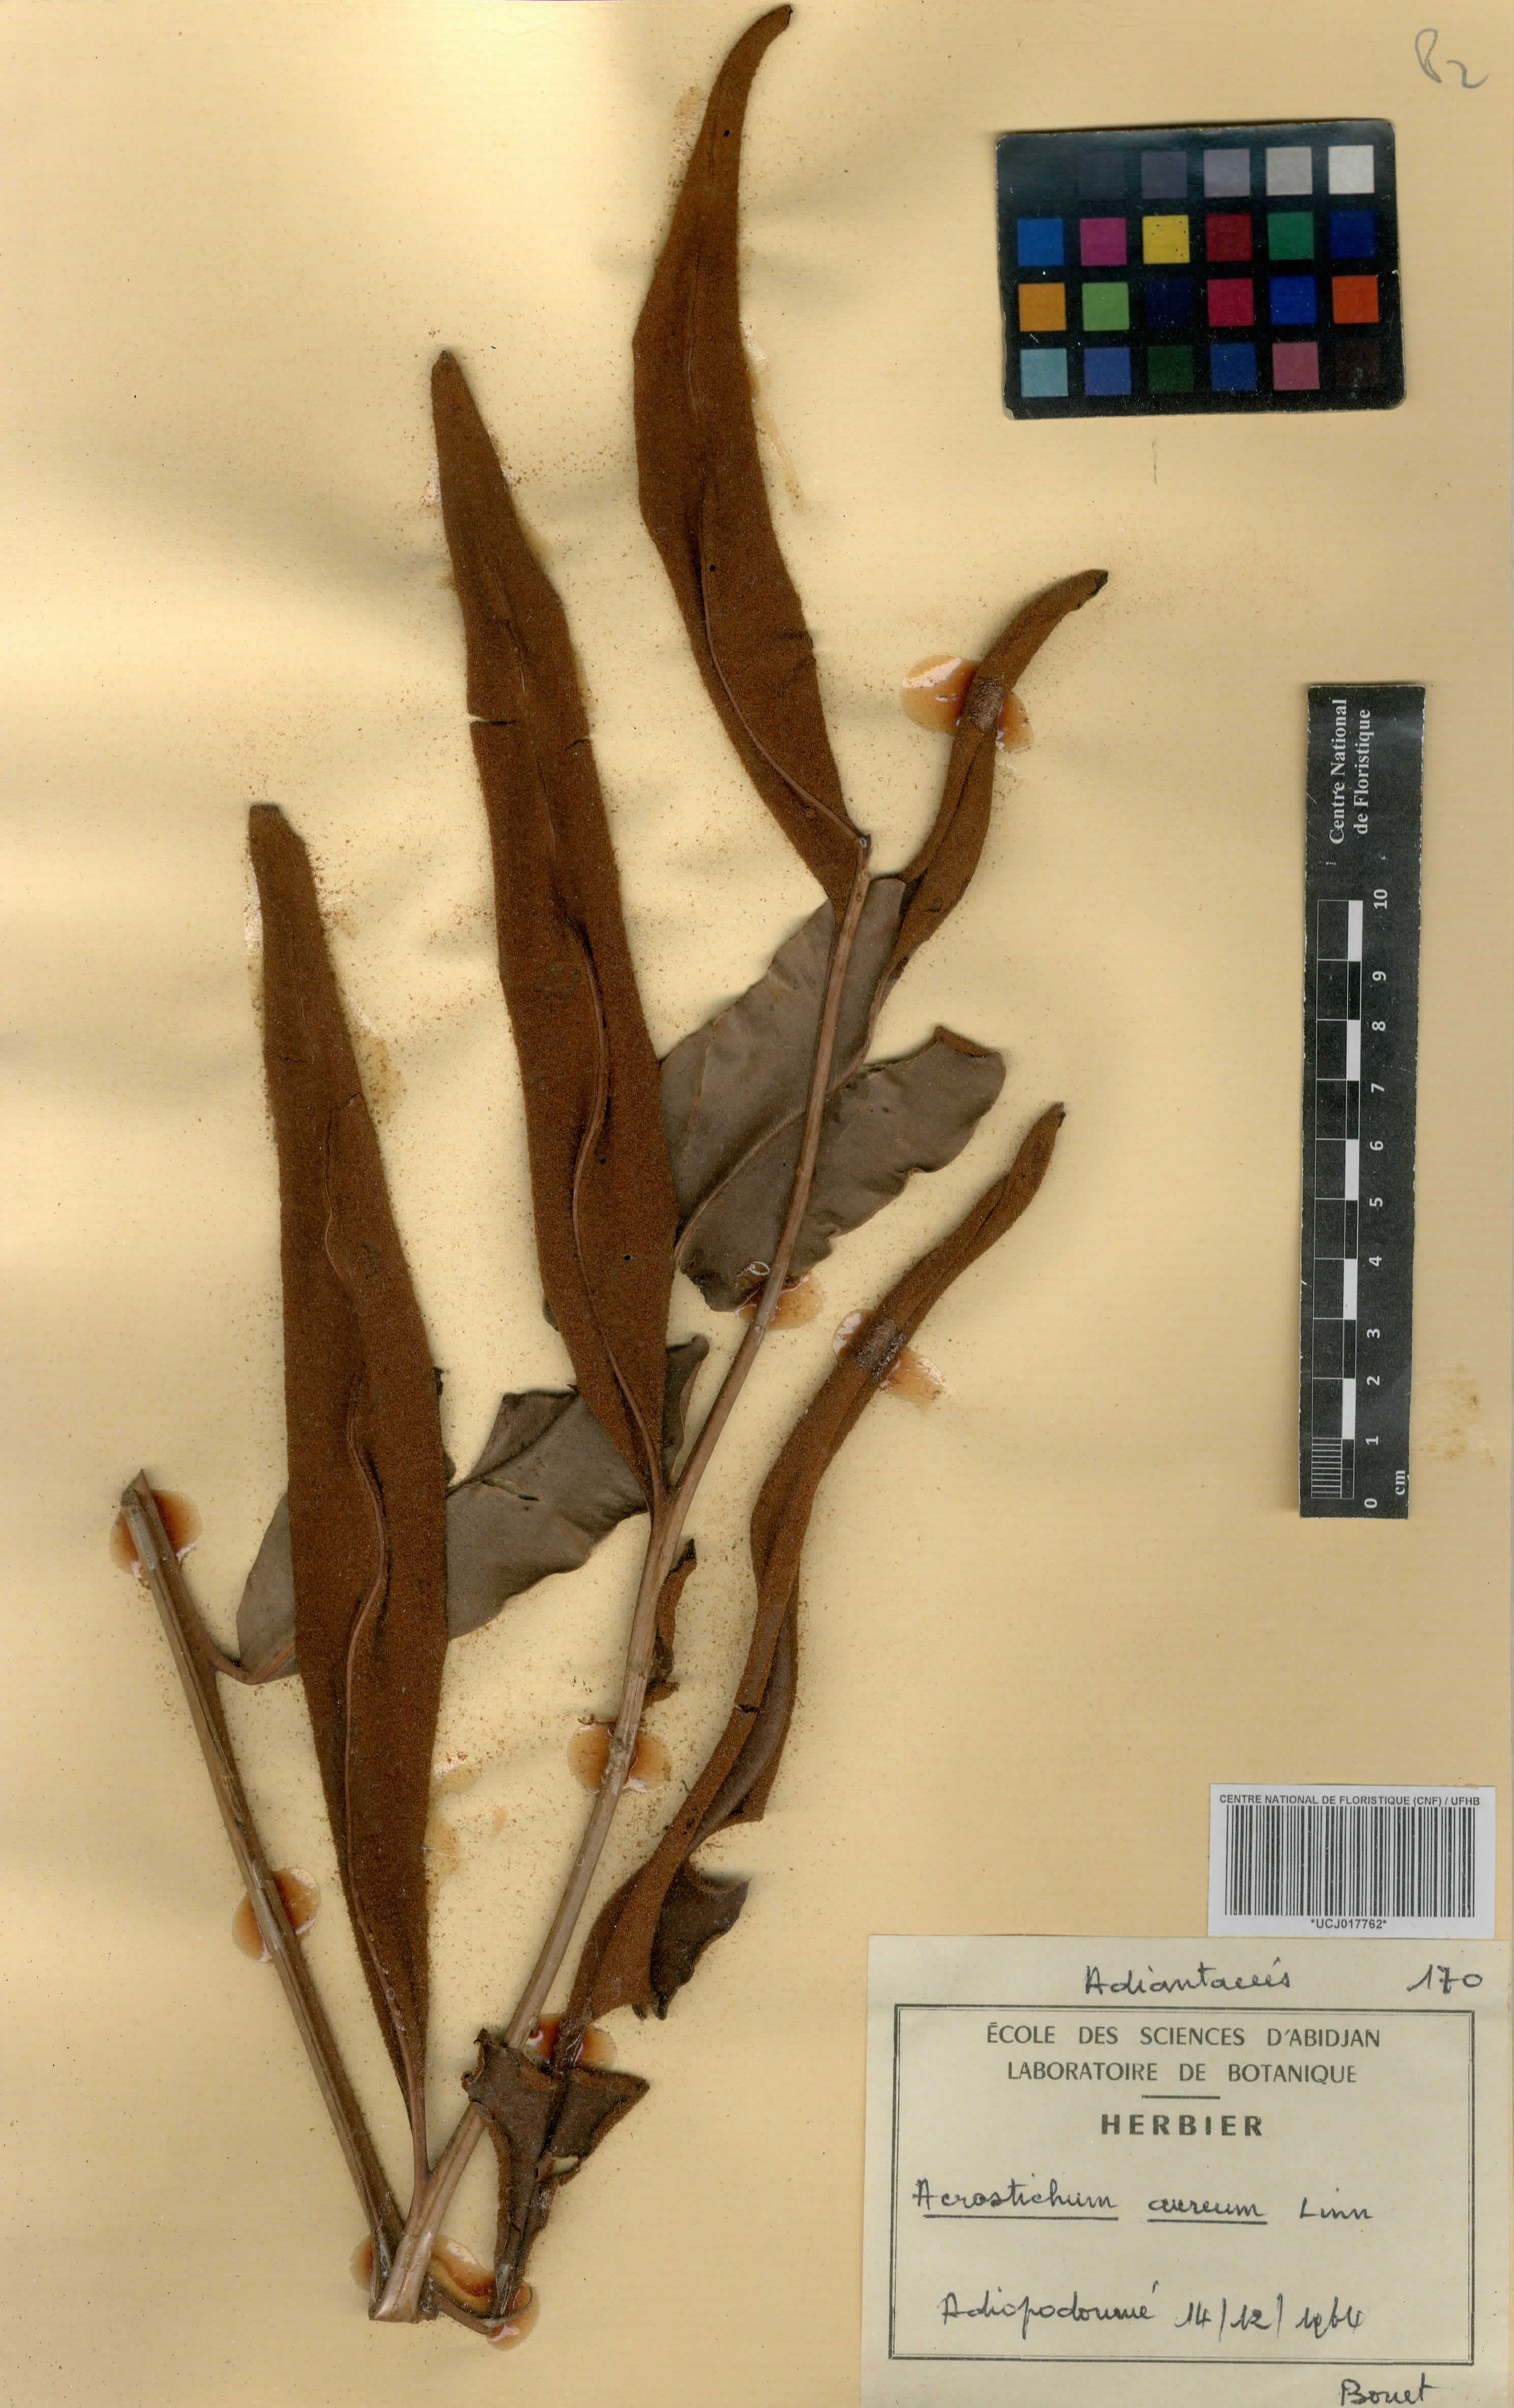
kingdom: Plantae
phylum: Tracheophyta
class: Polypodiopsida
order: Polypodiales
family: Pteridaceae
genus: Acrostichum
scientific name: Acrostichum aureum
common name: Leather fern
